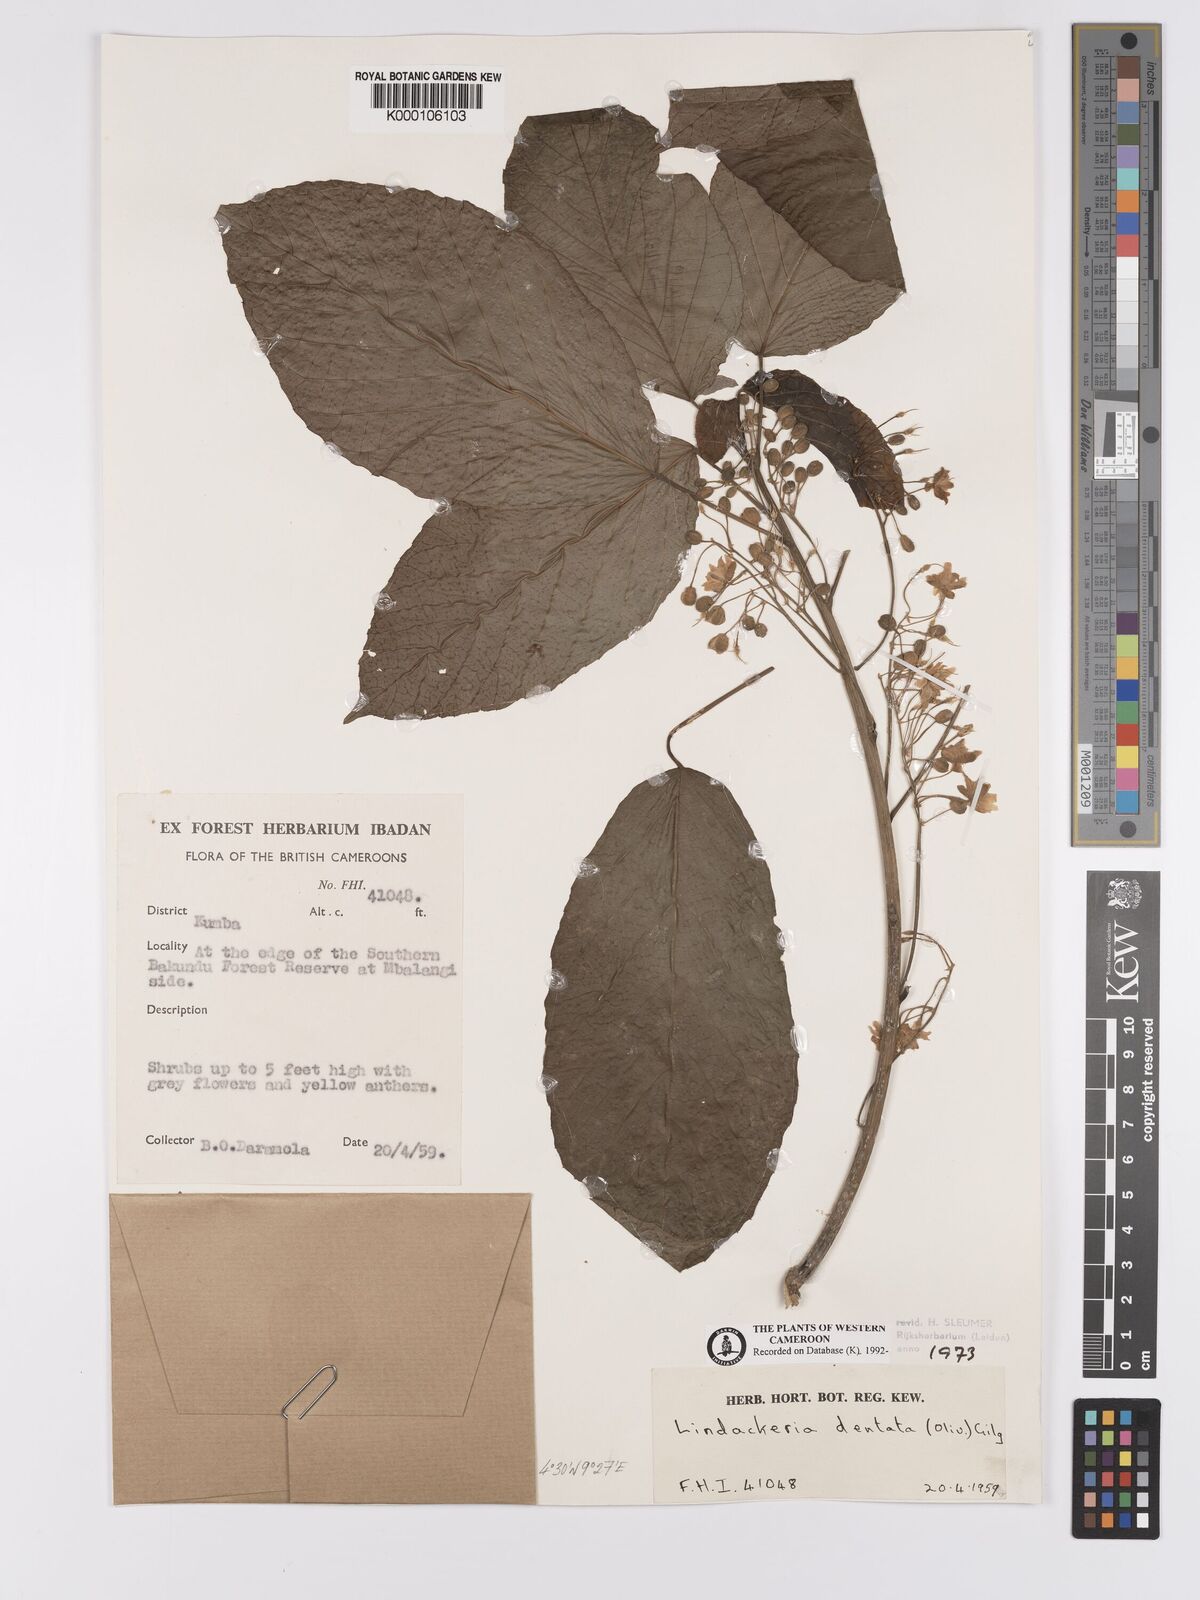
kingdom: Plantae
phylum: Tracheophyta
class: Magnoliopsida
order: Malpighiales
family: Achariaceae
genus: Lindackeria
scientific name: Lindackeria dentata
